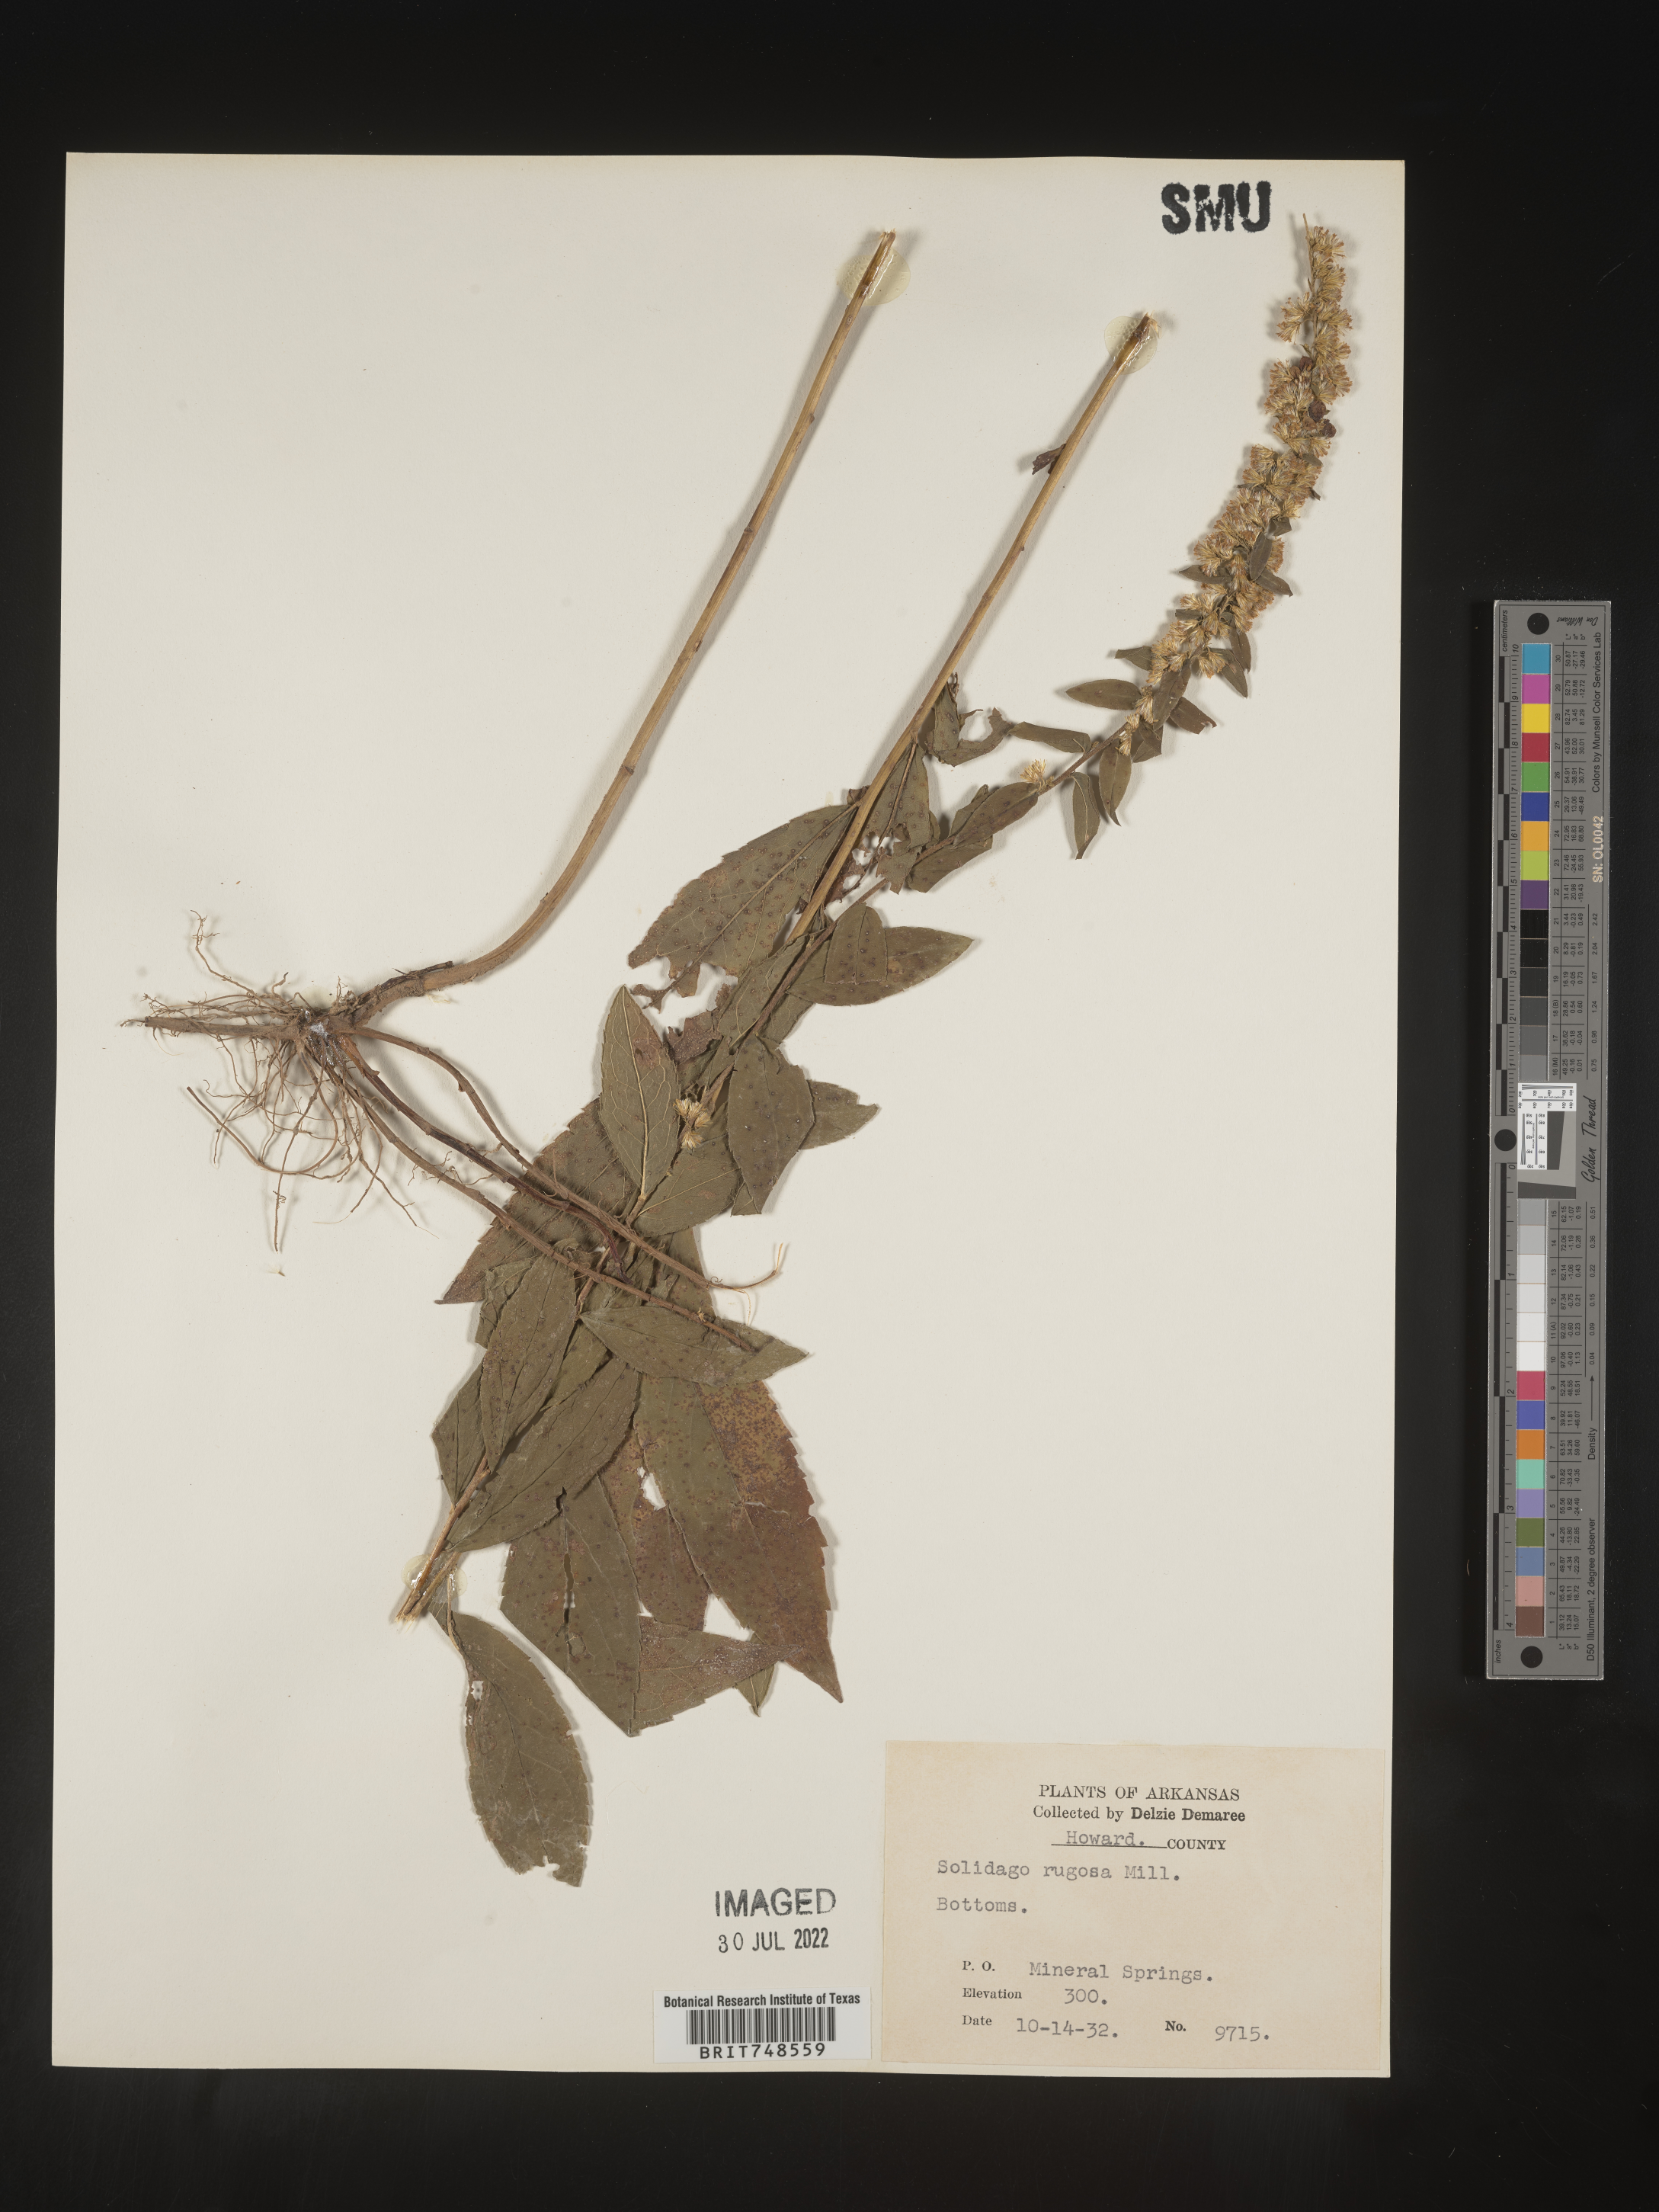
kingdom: Plantae
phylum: Tracheophyta
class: Magnoliopsida
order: Asterales
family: Asteraceae
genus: Solidago
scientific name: Solidago rugosa
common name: Rough-stemmed goldenrod
